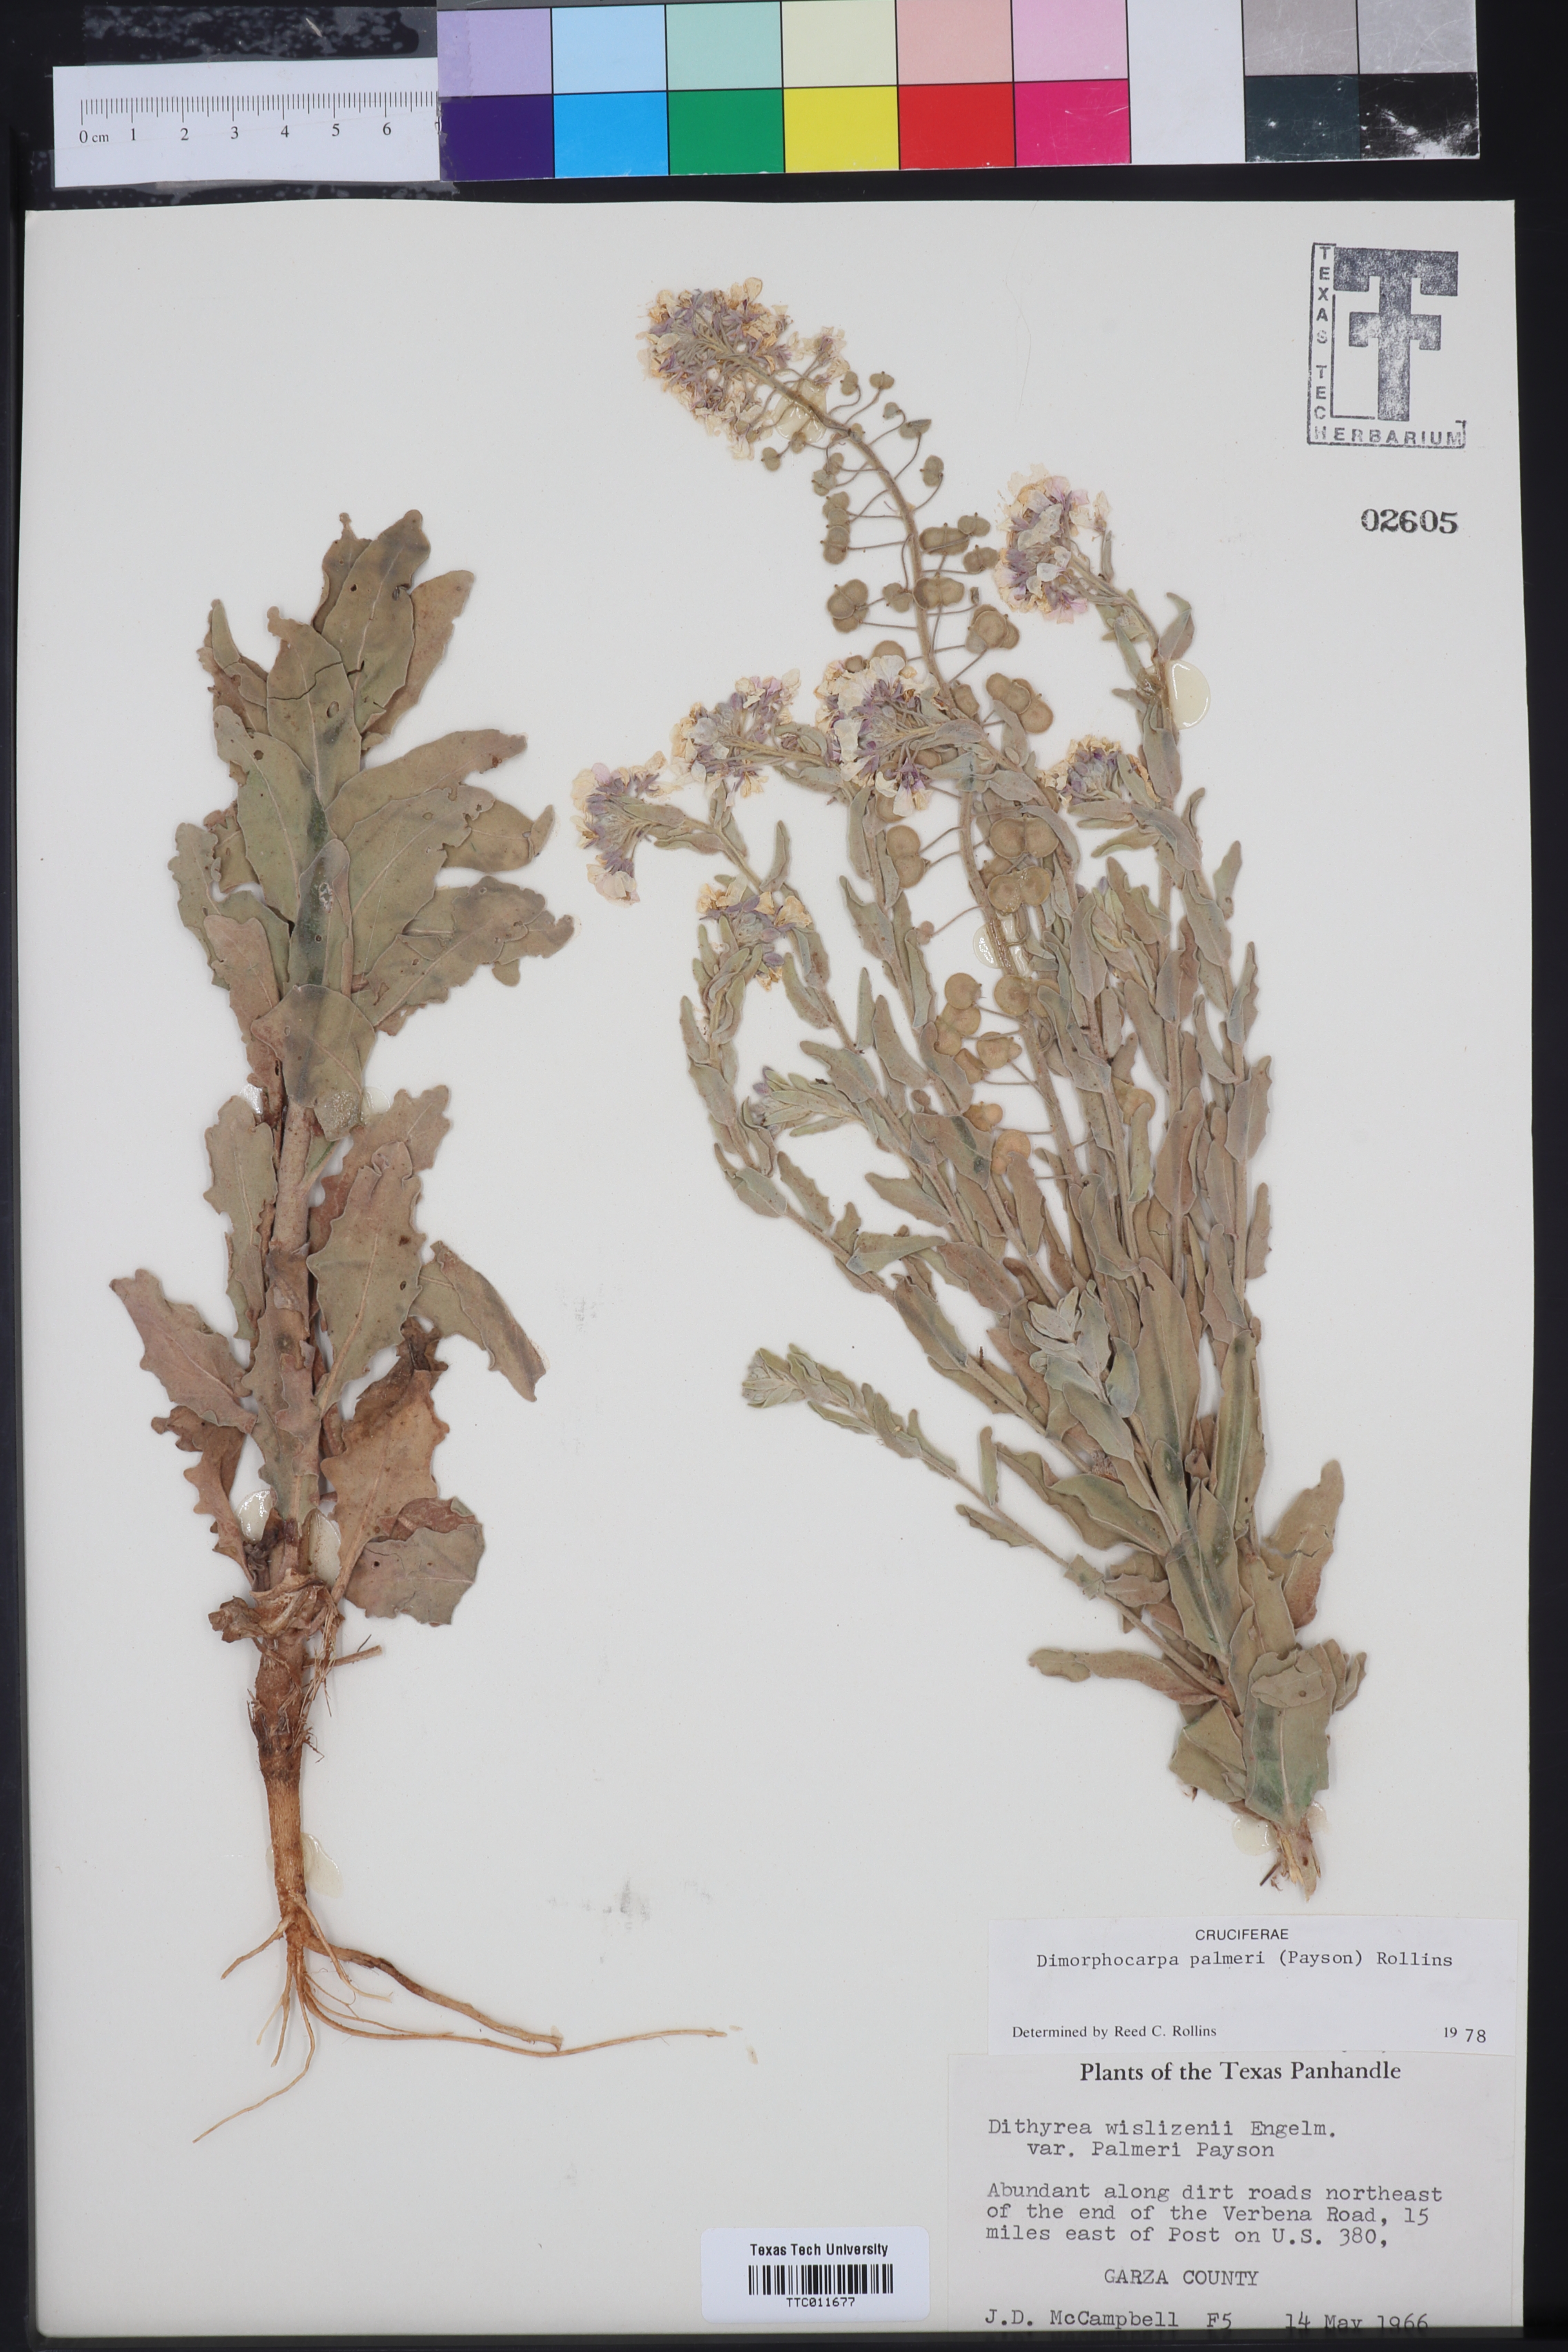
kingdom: Plantae
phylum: Tracheophyta
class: Magnoliopsida
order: Brassicales
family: Brassicaceae
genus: Dimorphocarpa
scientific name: Dimorphocarpa candicans
